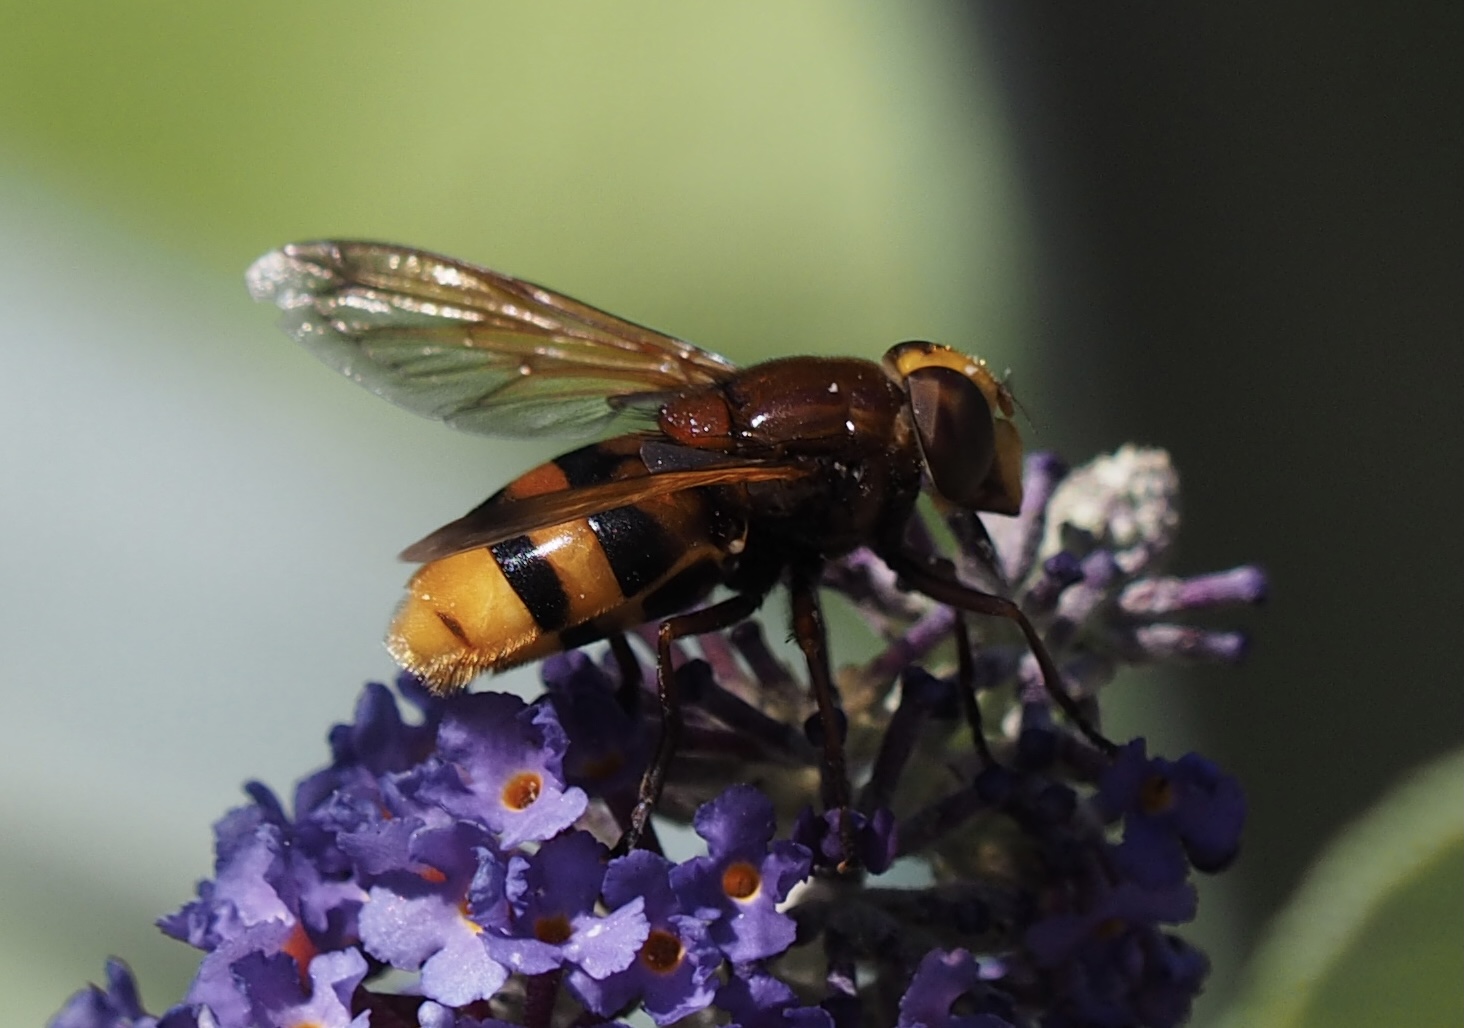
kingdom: Animalia
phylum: Arthropoda
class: Insecta
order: Diptera
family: Syrphidae
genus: Volucella
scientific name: Volucella zonaria
